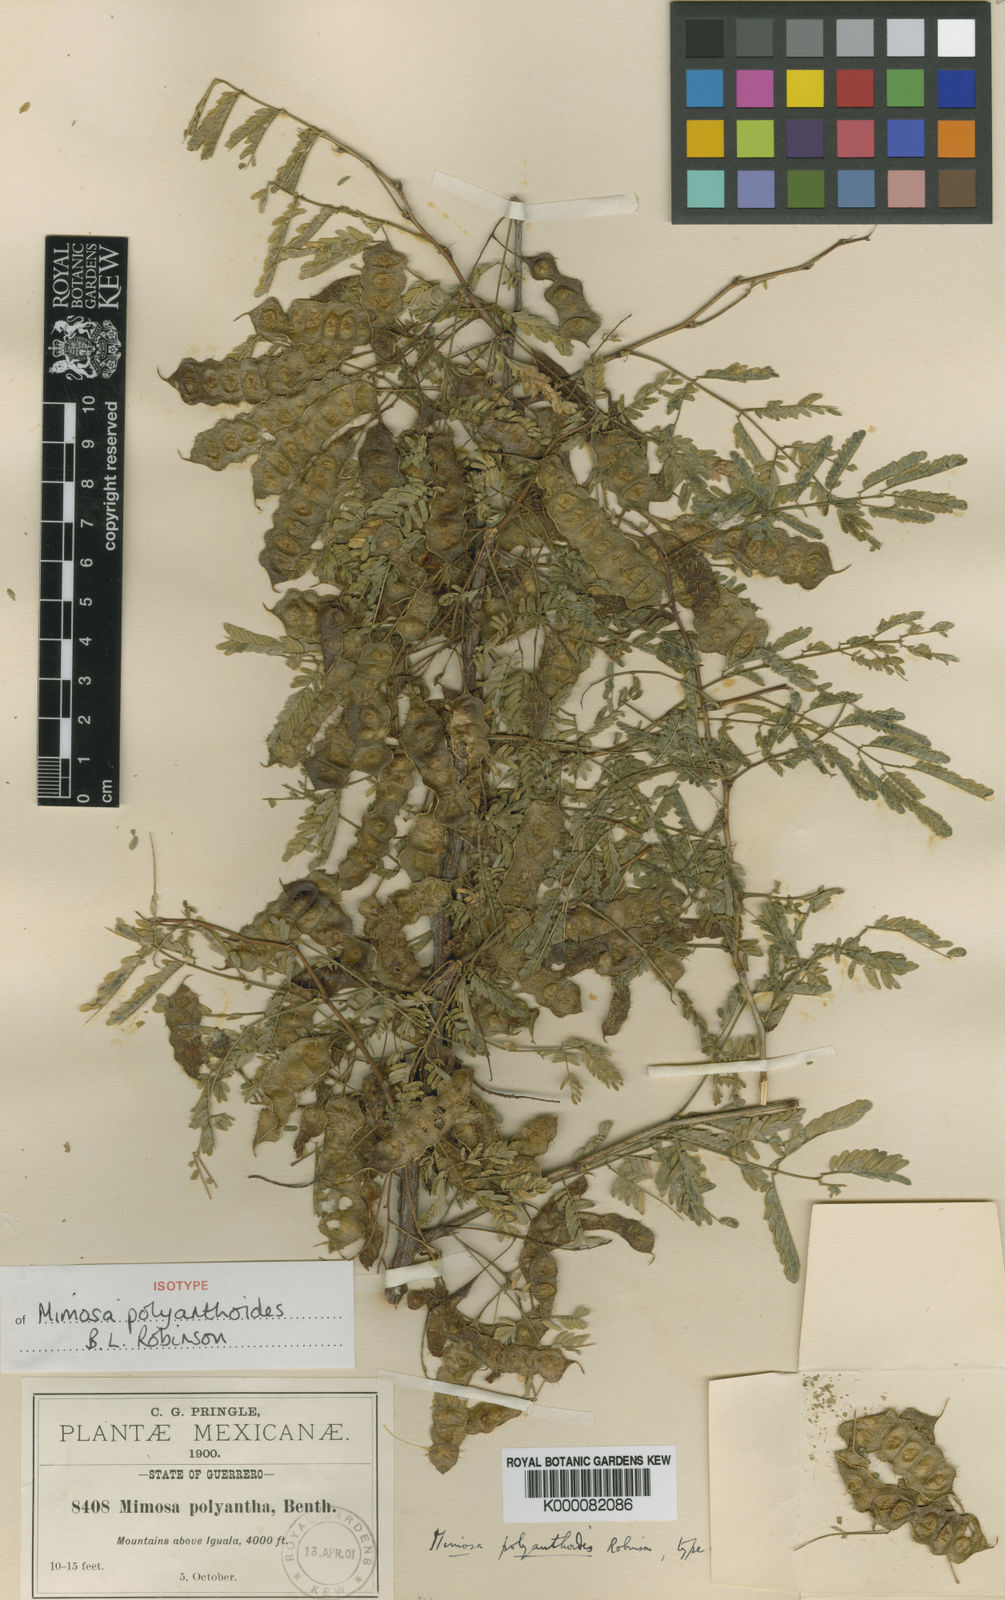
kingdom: Plantae
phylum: Tracheophyta
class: Magnoliopsida
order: Fabales
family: Fabaceae
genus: Mimosa
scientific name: Mimosa polyantha
